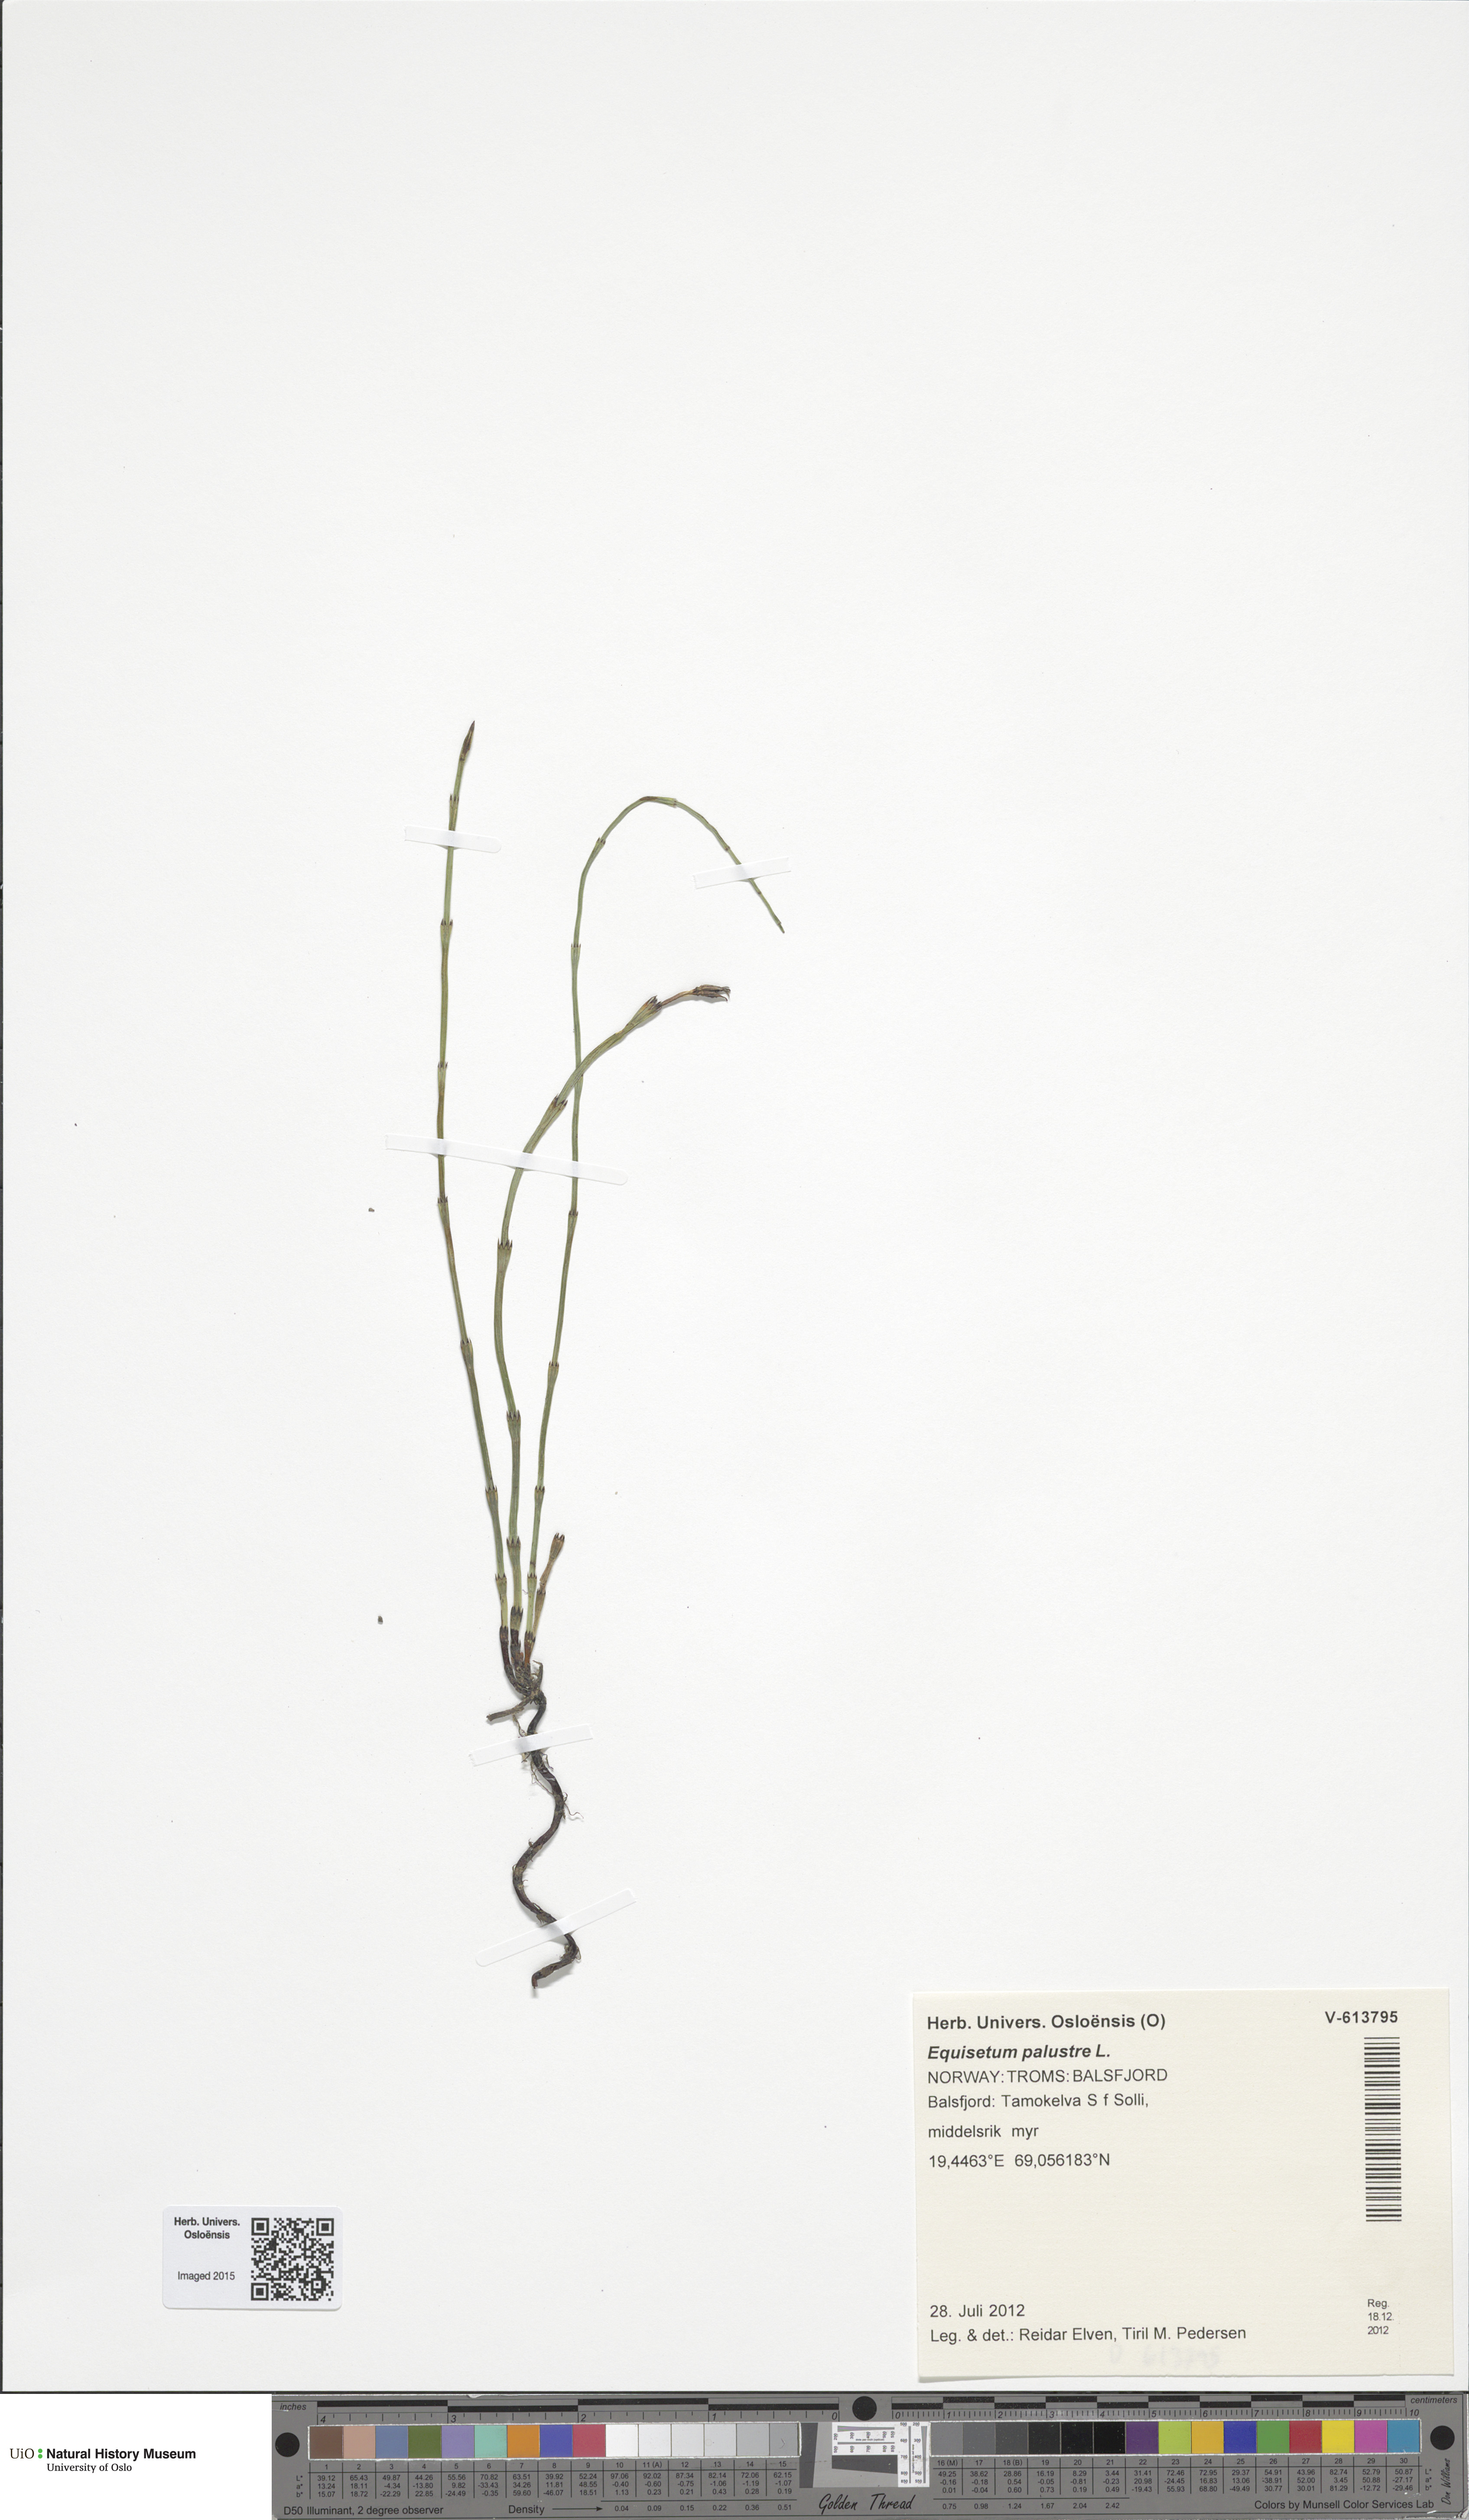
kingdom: Plantae
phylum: Tracheophyta
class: Polypodiopsida
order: Equisetales
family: Equisetaceae
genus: Equisetum
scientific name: Equisetum palustre
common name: Marsh horsetail
